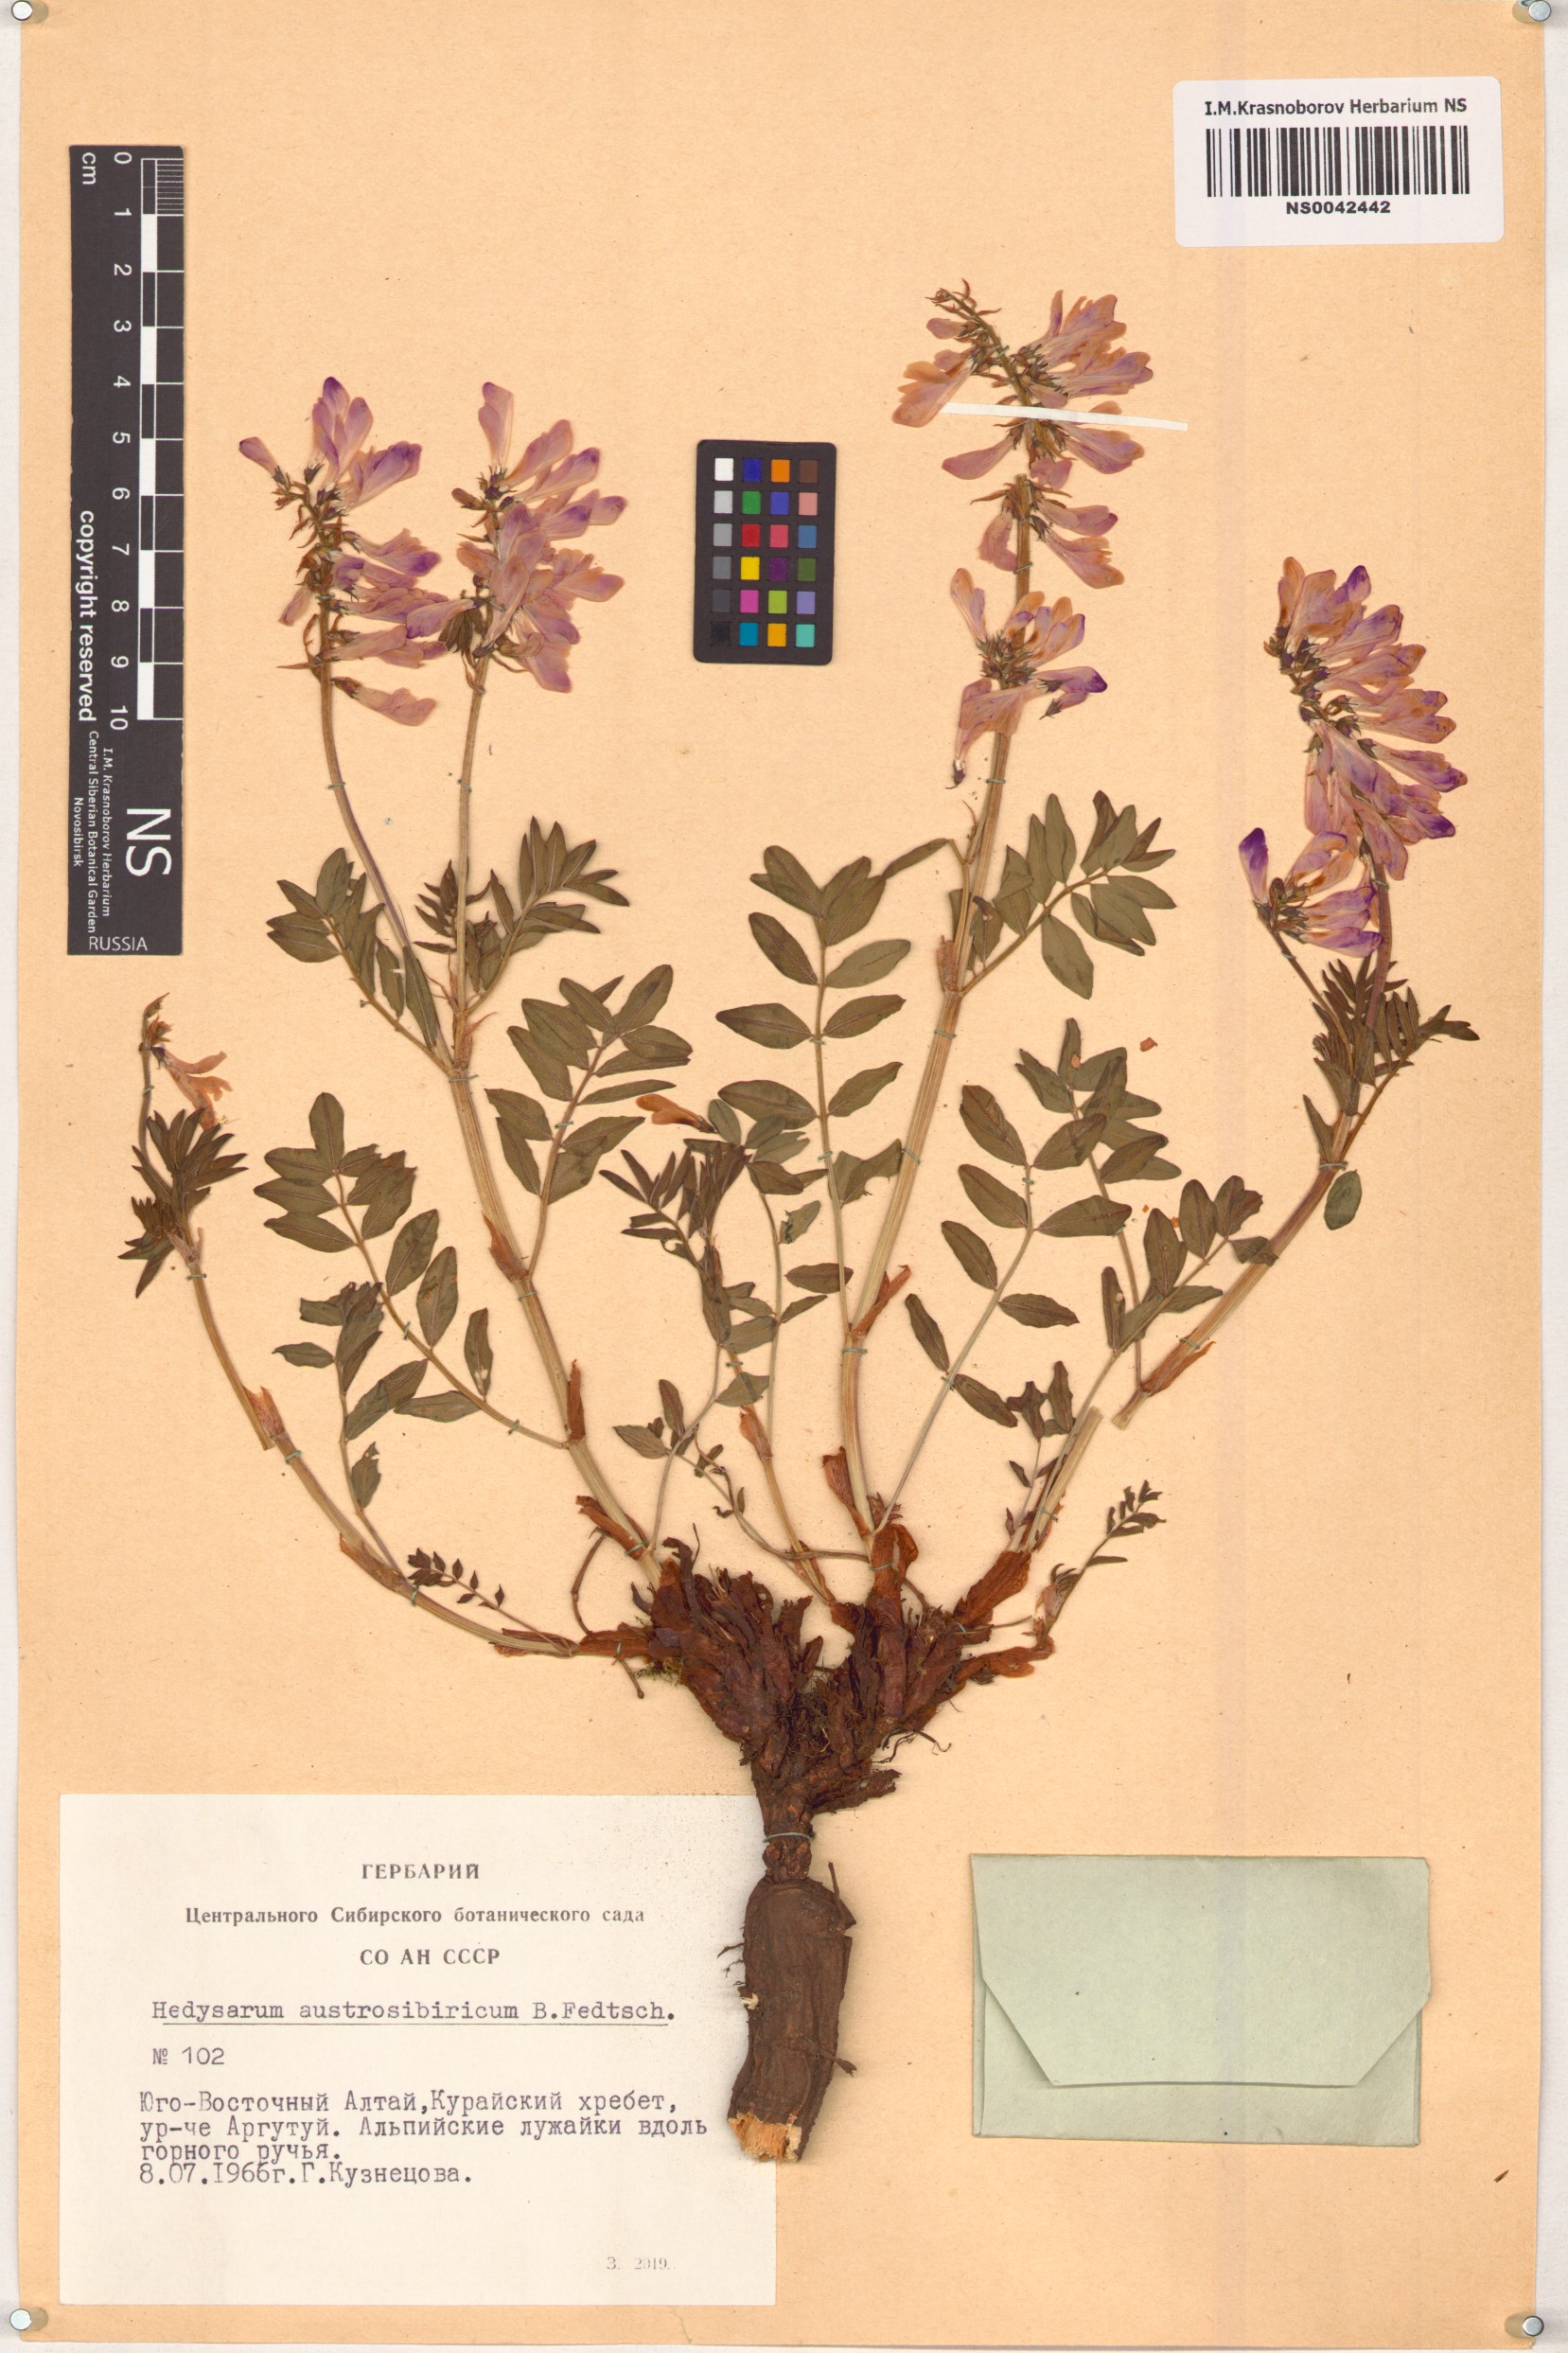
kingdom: Plantae
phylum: Tracheophyta
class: Magnoliopsida
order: Fabales
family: Fabaceae
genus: Hedysarum
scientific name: Hedysarum neglectum
